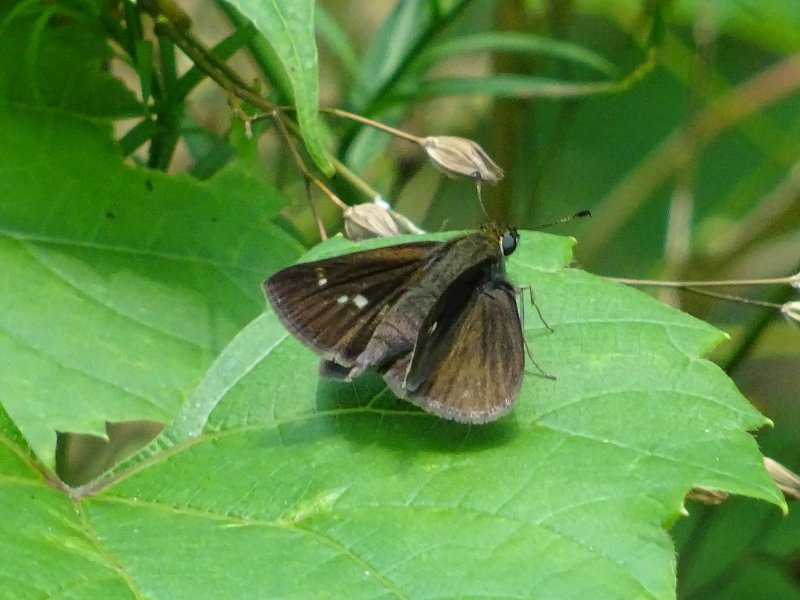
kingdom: Animalia
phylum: Arthropoda
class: Insecta
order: Lepidoptera
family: Hesperiidae
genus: Euphyes
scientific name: Euphyes vestris
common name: Dun Skipper
